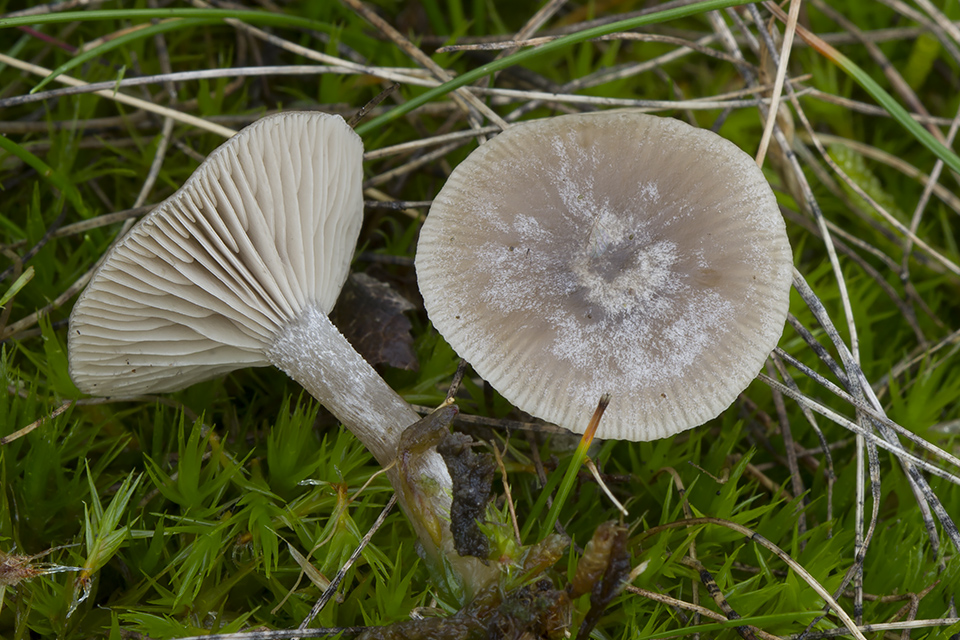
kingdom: Fungi
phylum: Basidiomycota
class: Agaricomycetes
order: Agaricales
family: Tricholomataceae
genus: Clitocybe
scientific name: Clitocybe vibecina
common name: randstribet tragthat
